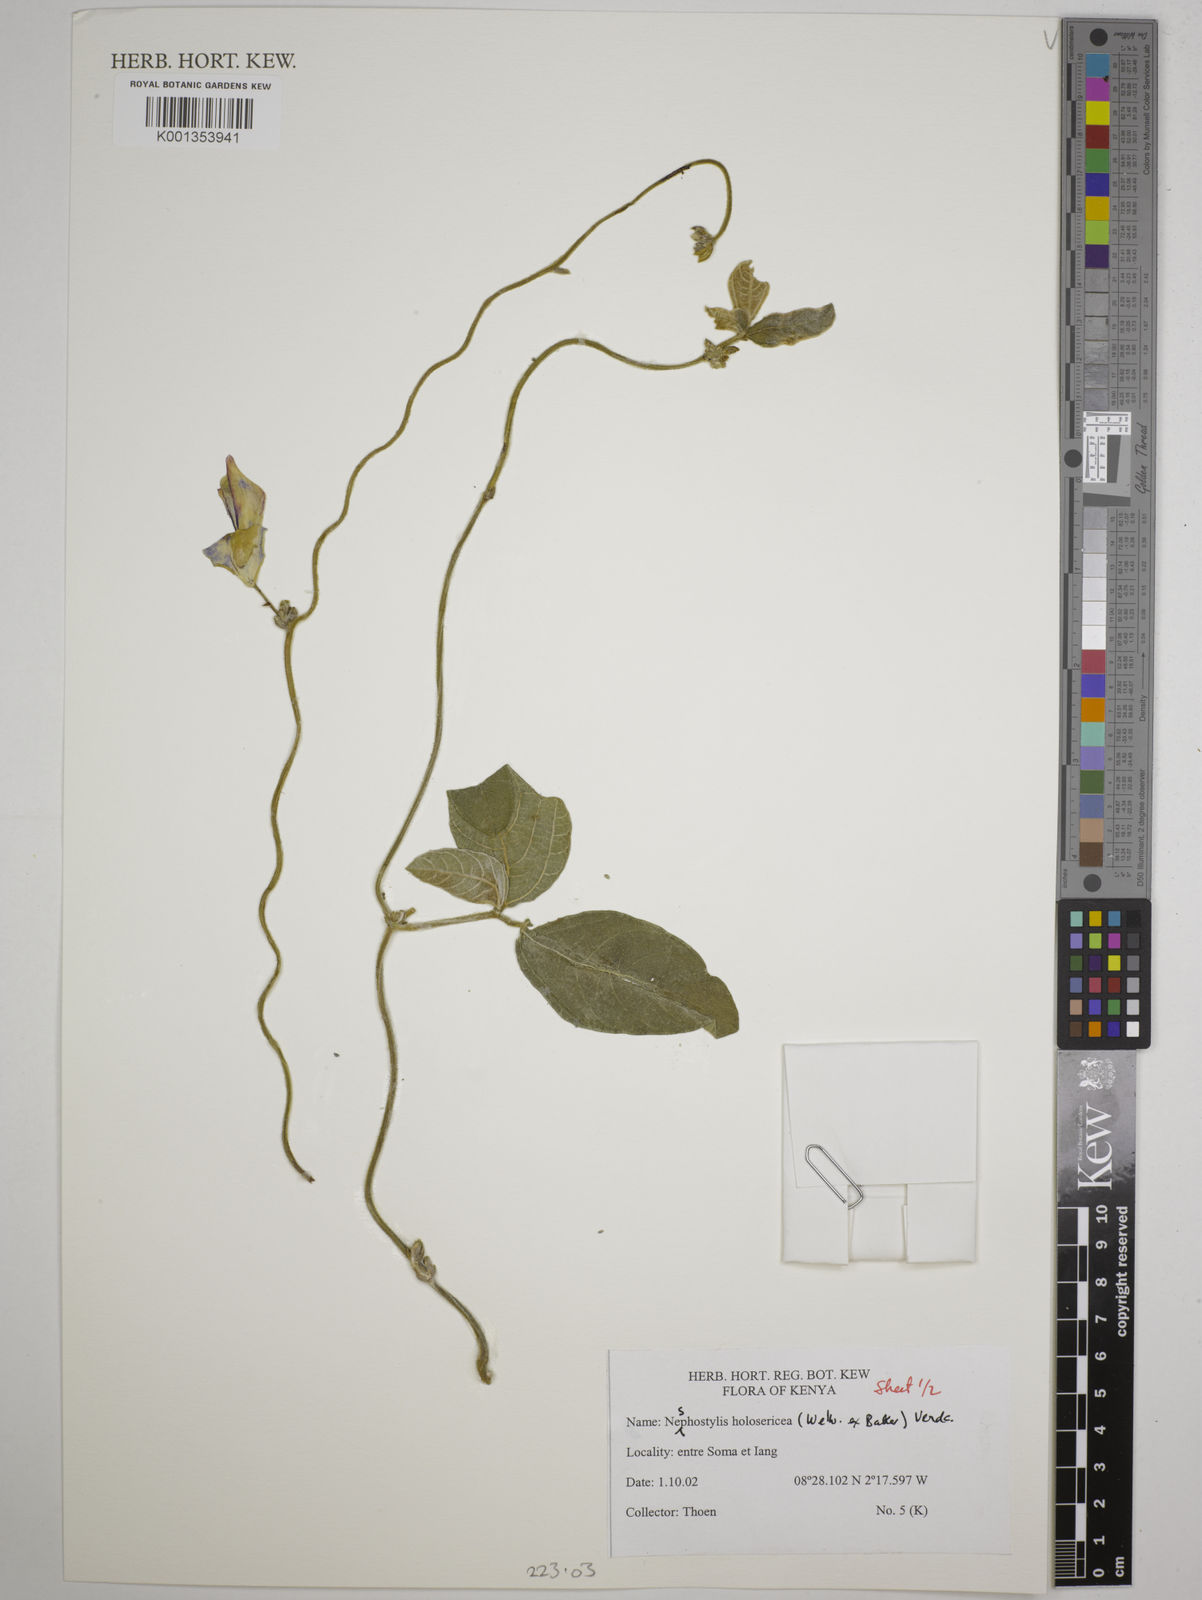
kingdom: Plantae
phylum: Tracheophyta
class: Magnoliopsida
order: Fabales
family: Fabaceae
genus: Nesphostylis
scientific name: Nesphostylis holosericea
